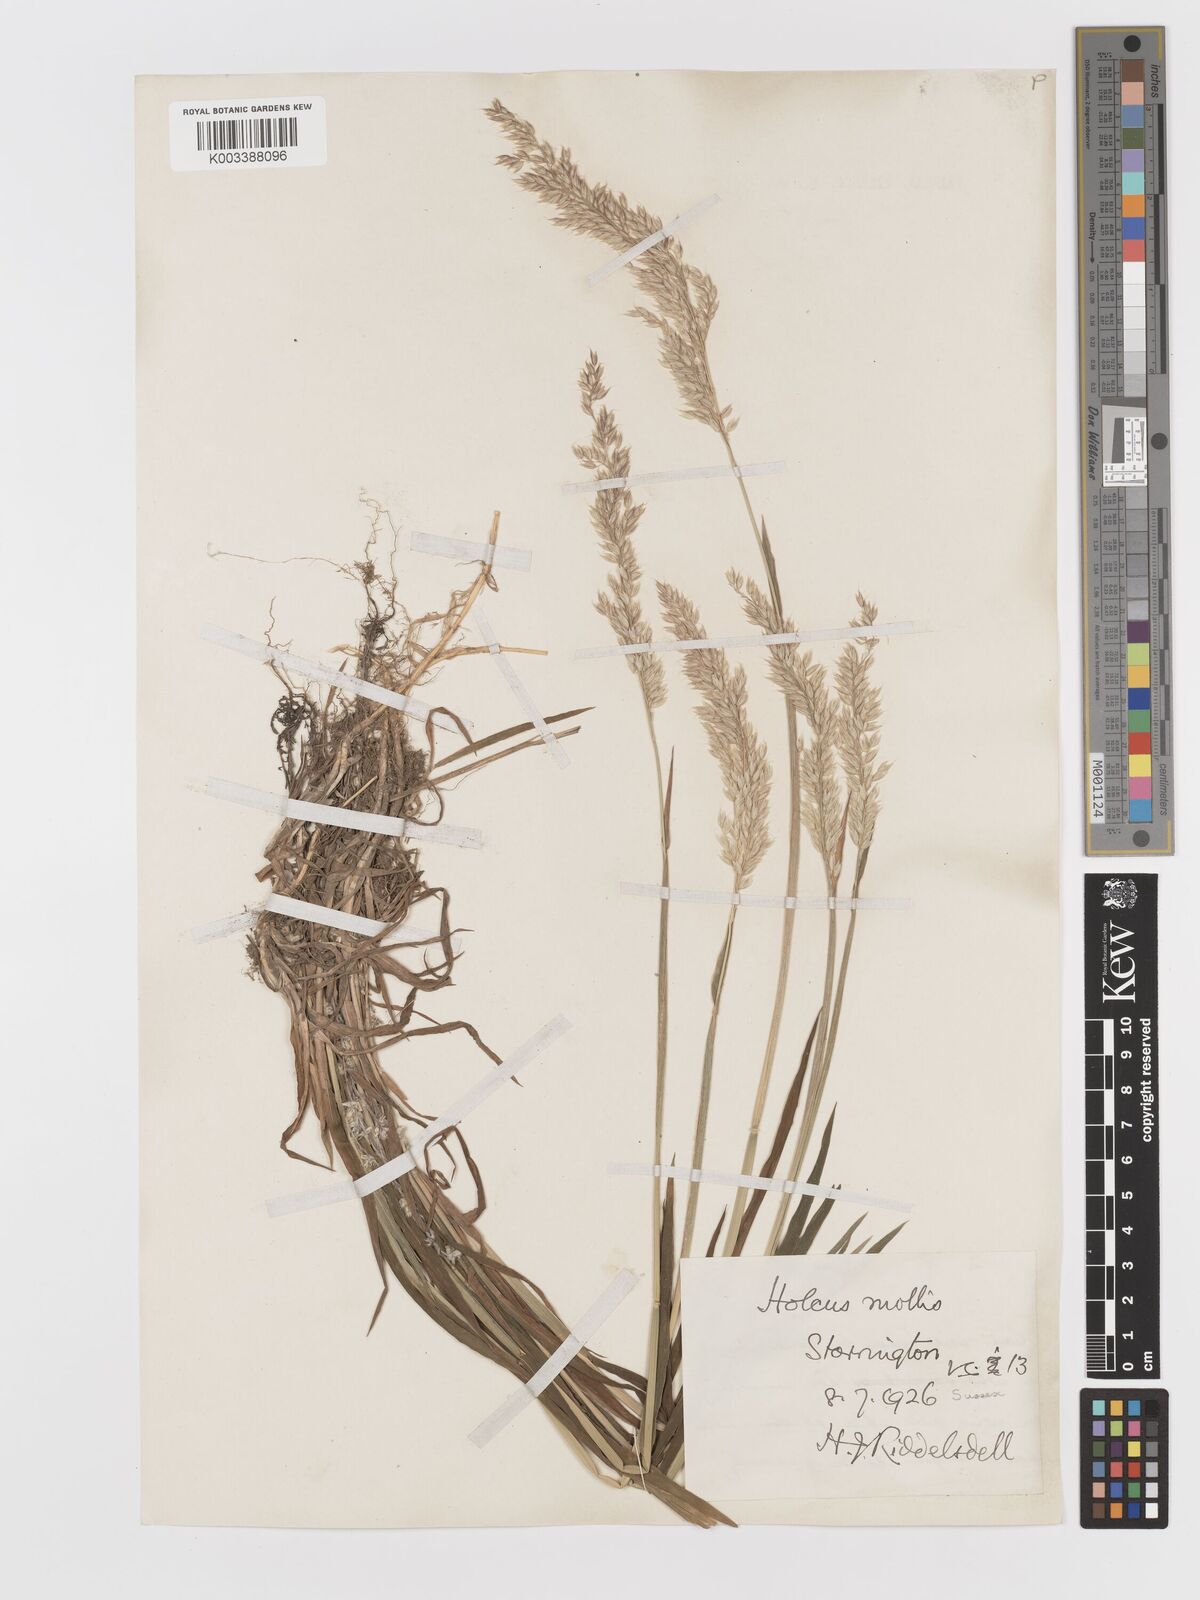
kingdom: Plantae
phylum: Tracheophyta
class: Liliopsida
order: Poales
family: Poaceae
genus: Holcus
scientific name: Holcus mollis
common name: Creeping velvetgrass
